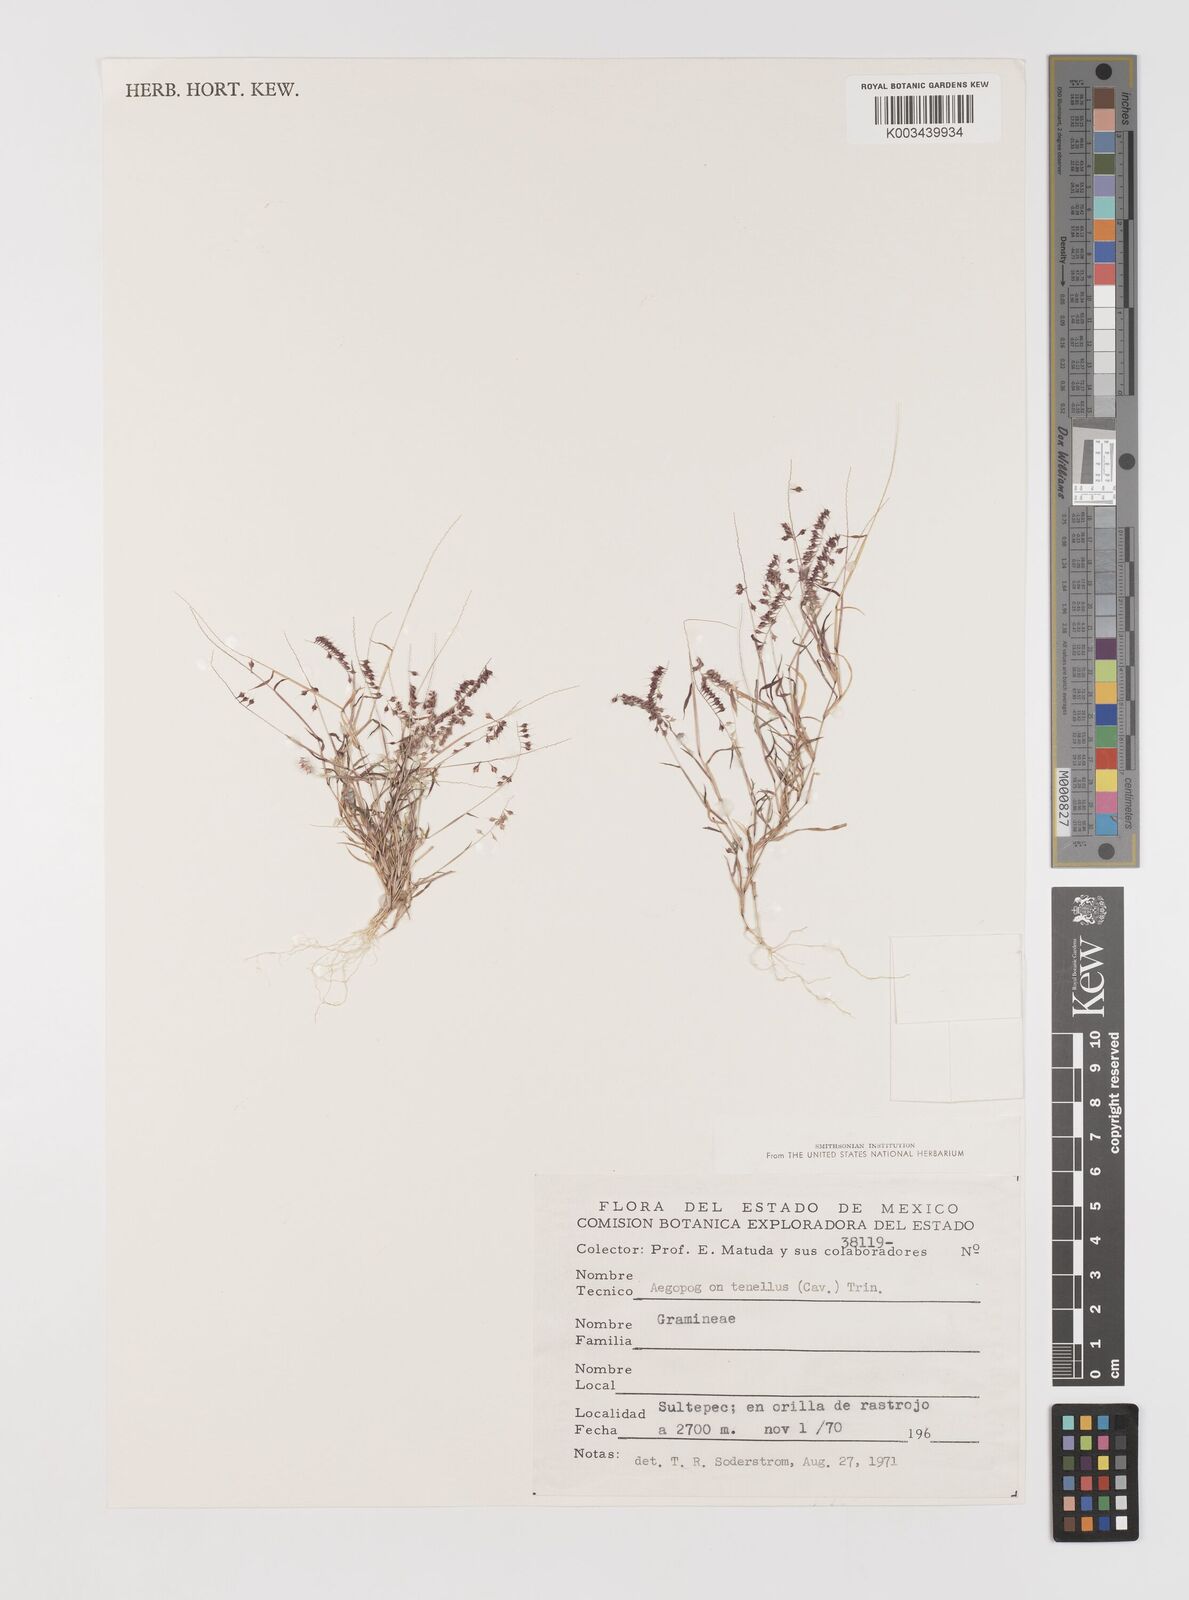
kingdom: Plantae
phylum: Tracheophyta
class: Liliopsida
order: Poales
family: Poaceae
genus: Muhlenbergia
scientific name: Muhlenbergia uniseta
